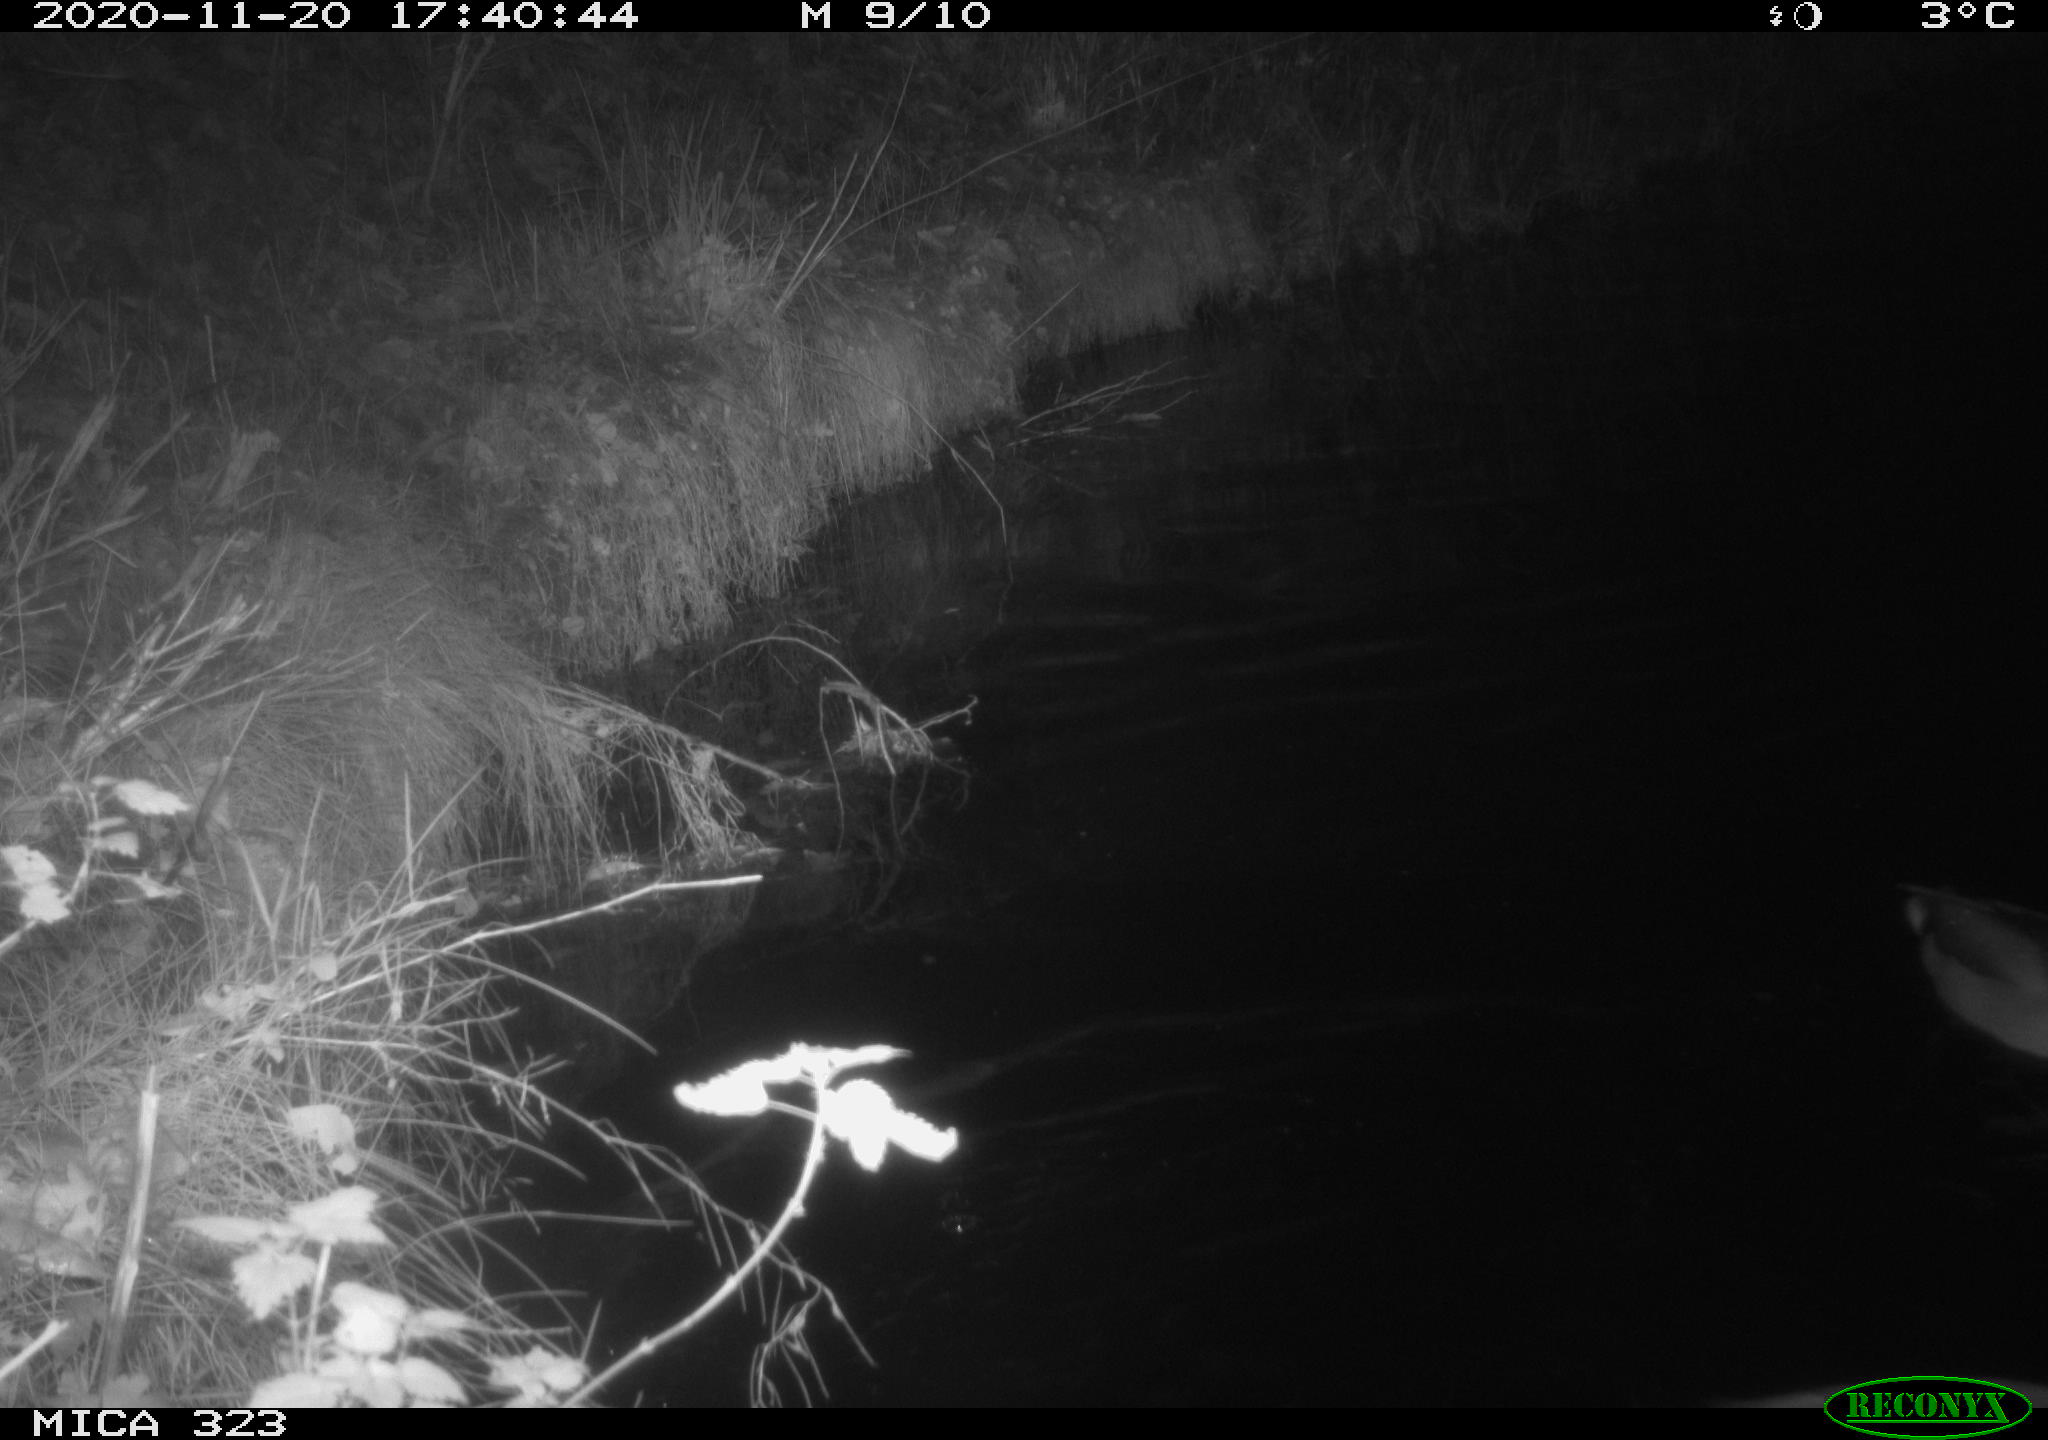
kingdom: Animalia
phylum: Chordata
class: Aves
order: Anseriformes
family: Anatidae
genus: Anas
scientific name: Anas platyrhynchos
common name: Mallard
